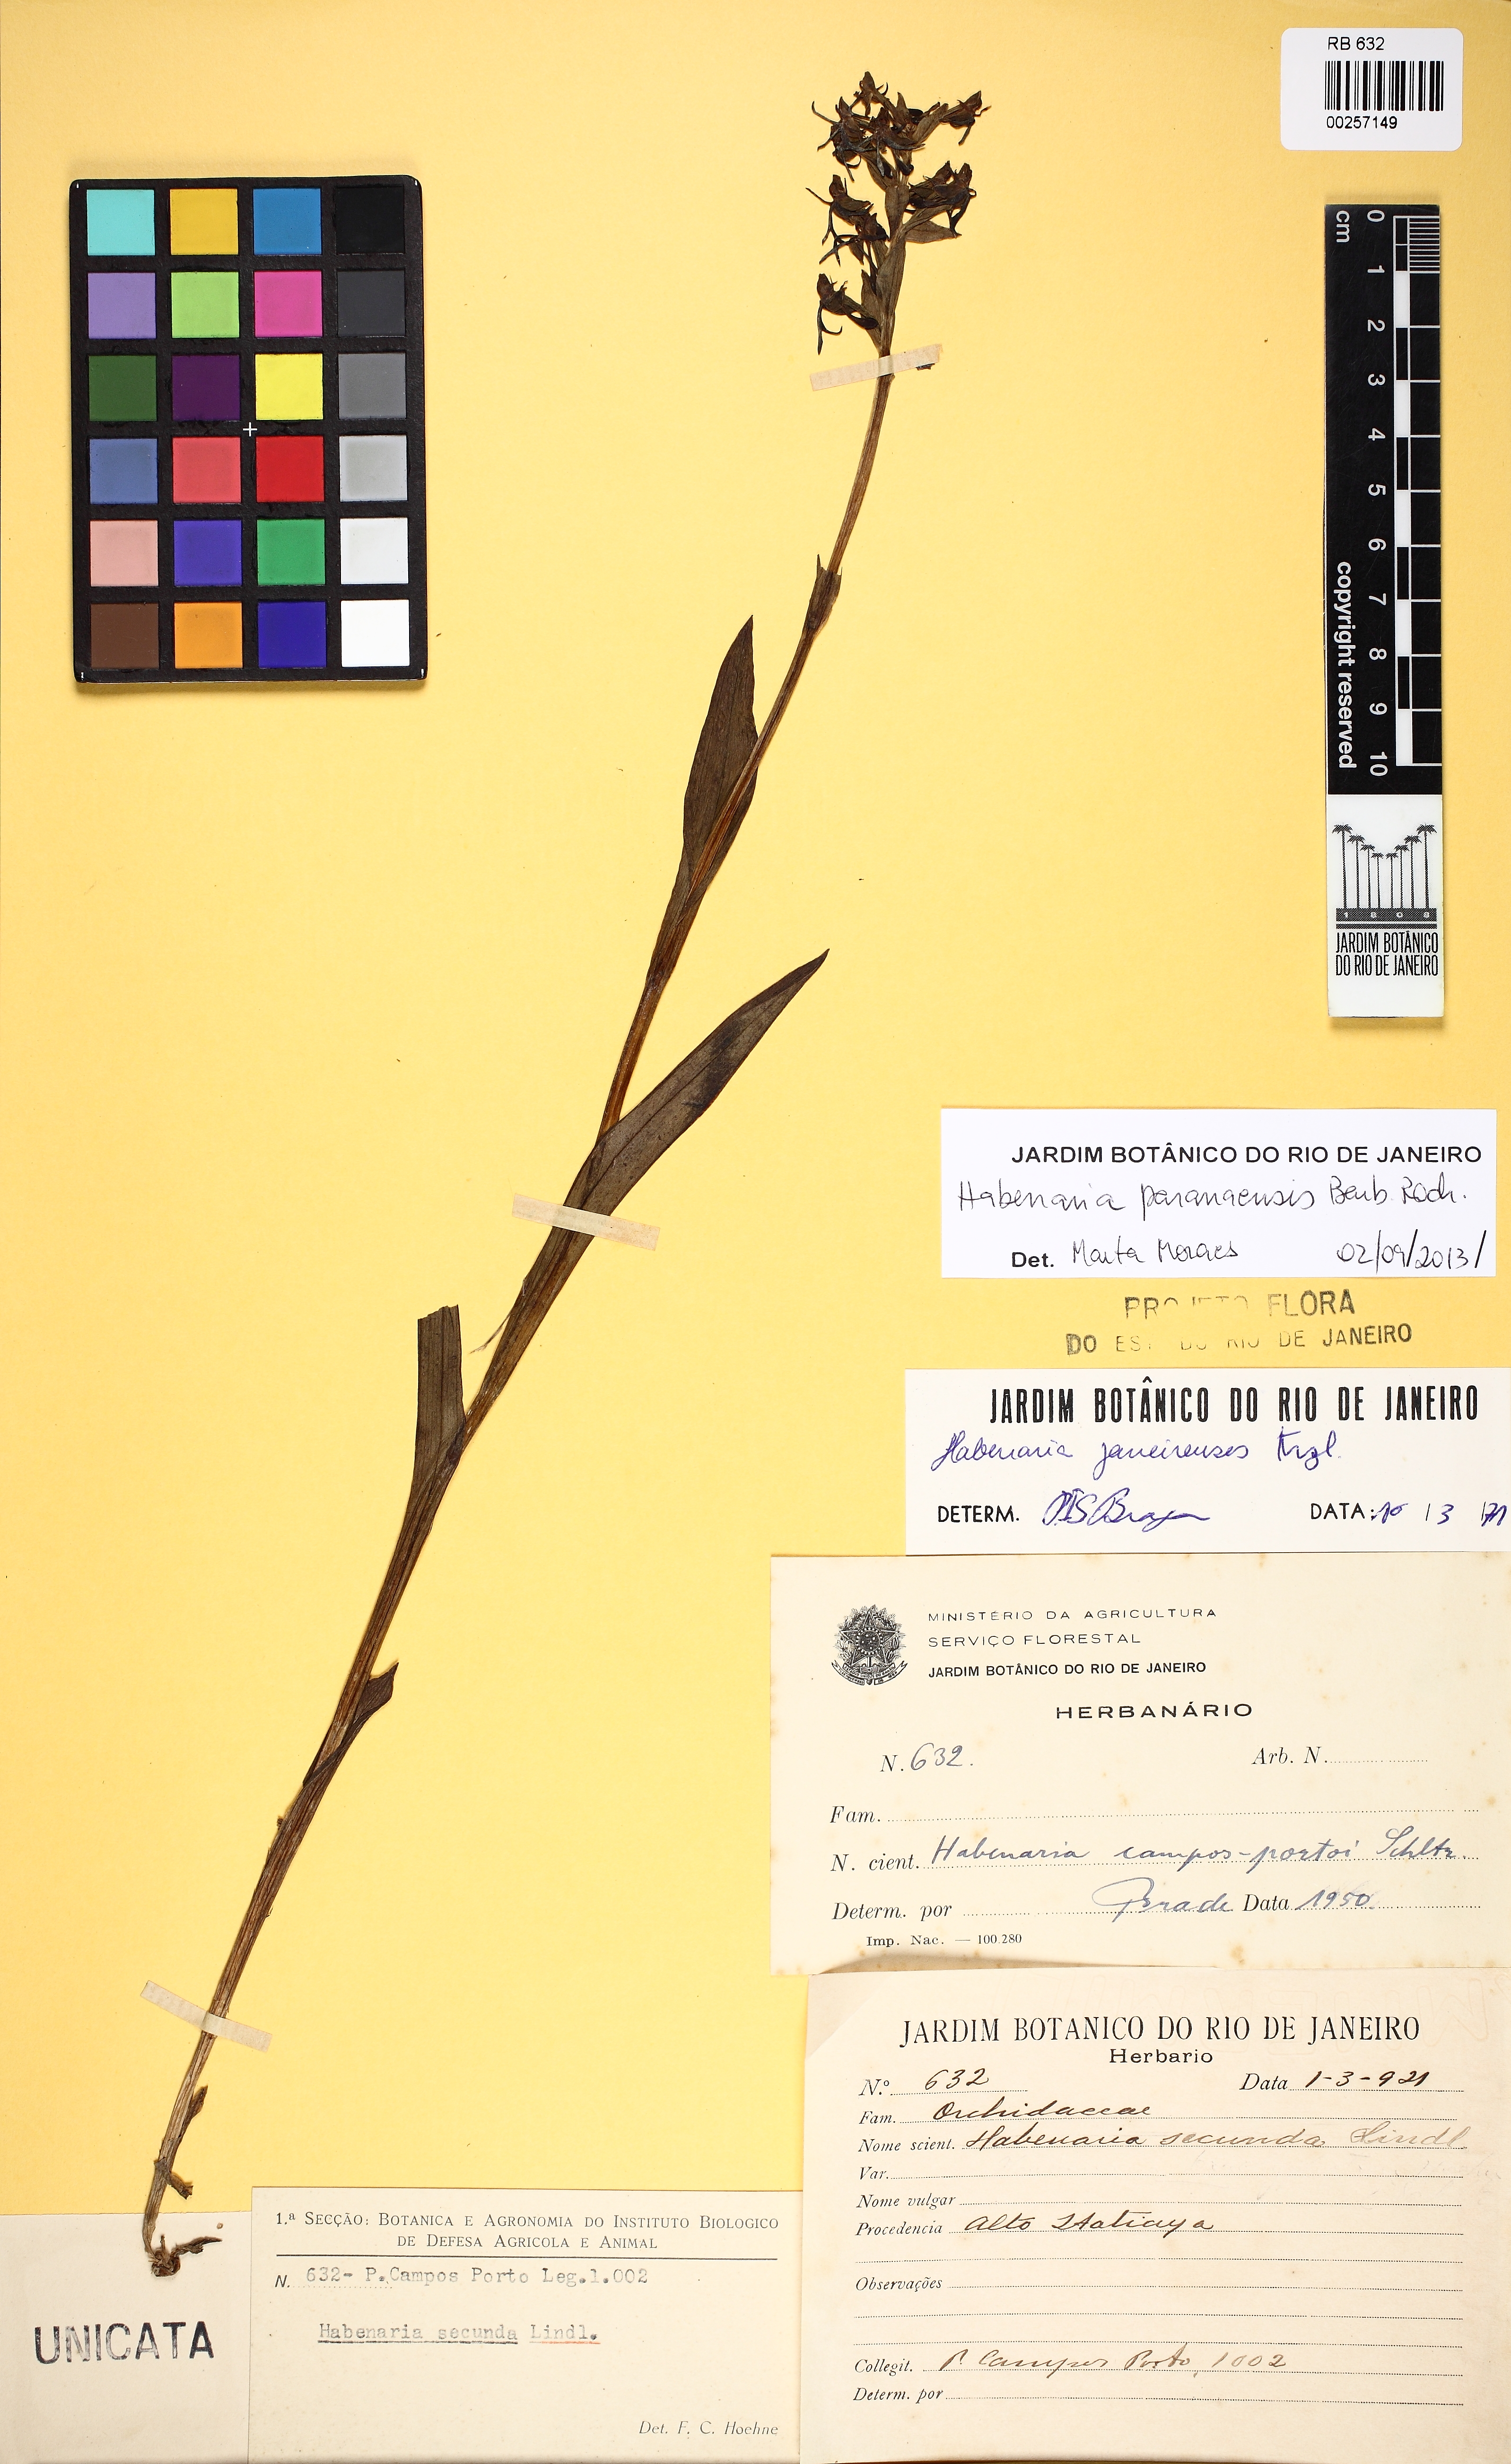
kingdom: Plantae
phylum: Tracheophyta
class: Liliopsida
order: Asparagales
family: Orchidaceae
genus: Habenaria
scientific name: Habenaria achalensis
